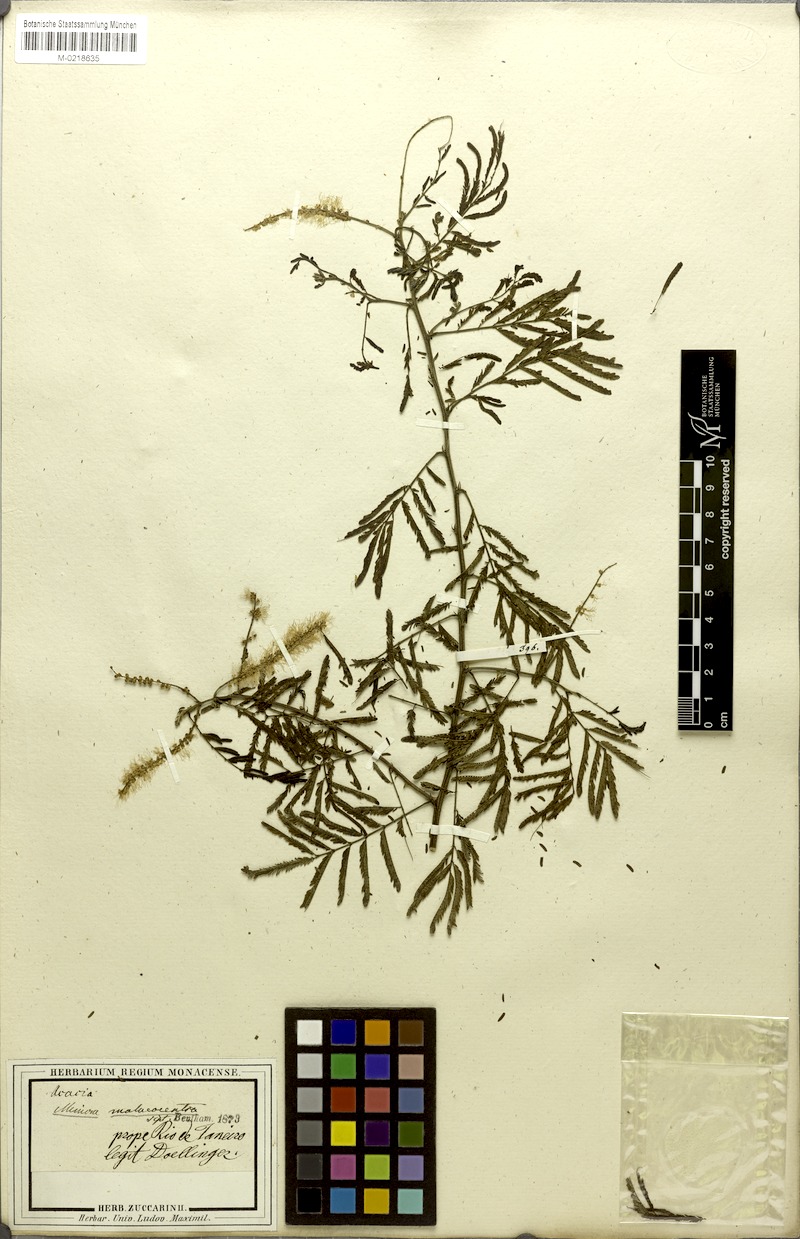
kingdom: Plantae
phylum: Tracheophyta
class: Magnoliopsida
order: Fabales
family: Fabaceae
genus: Mimosa
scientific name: Mimosa arenosa
